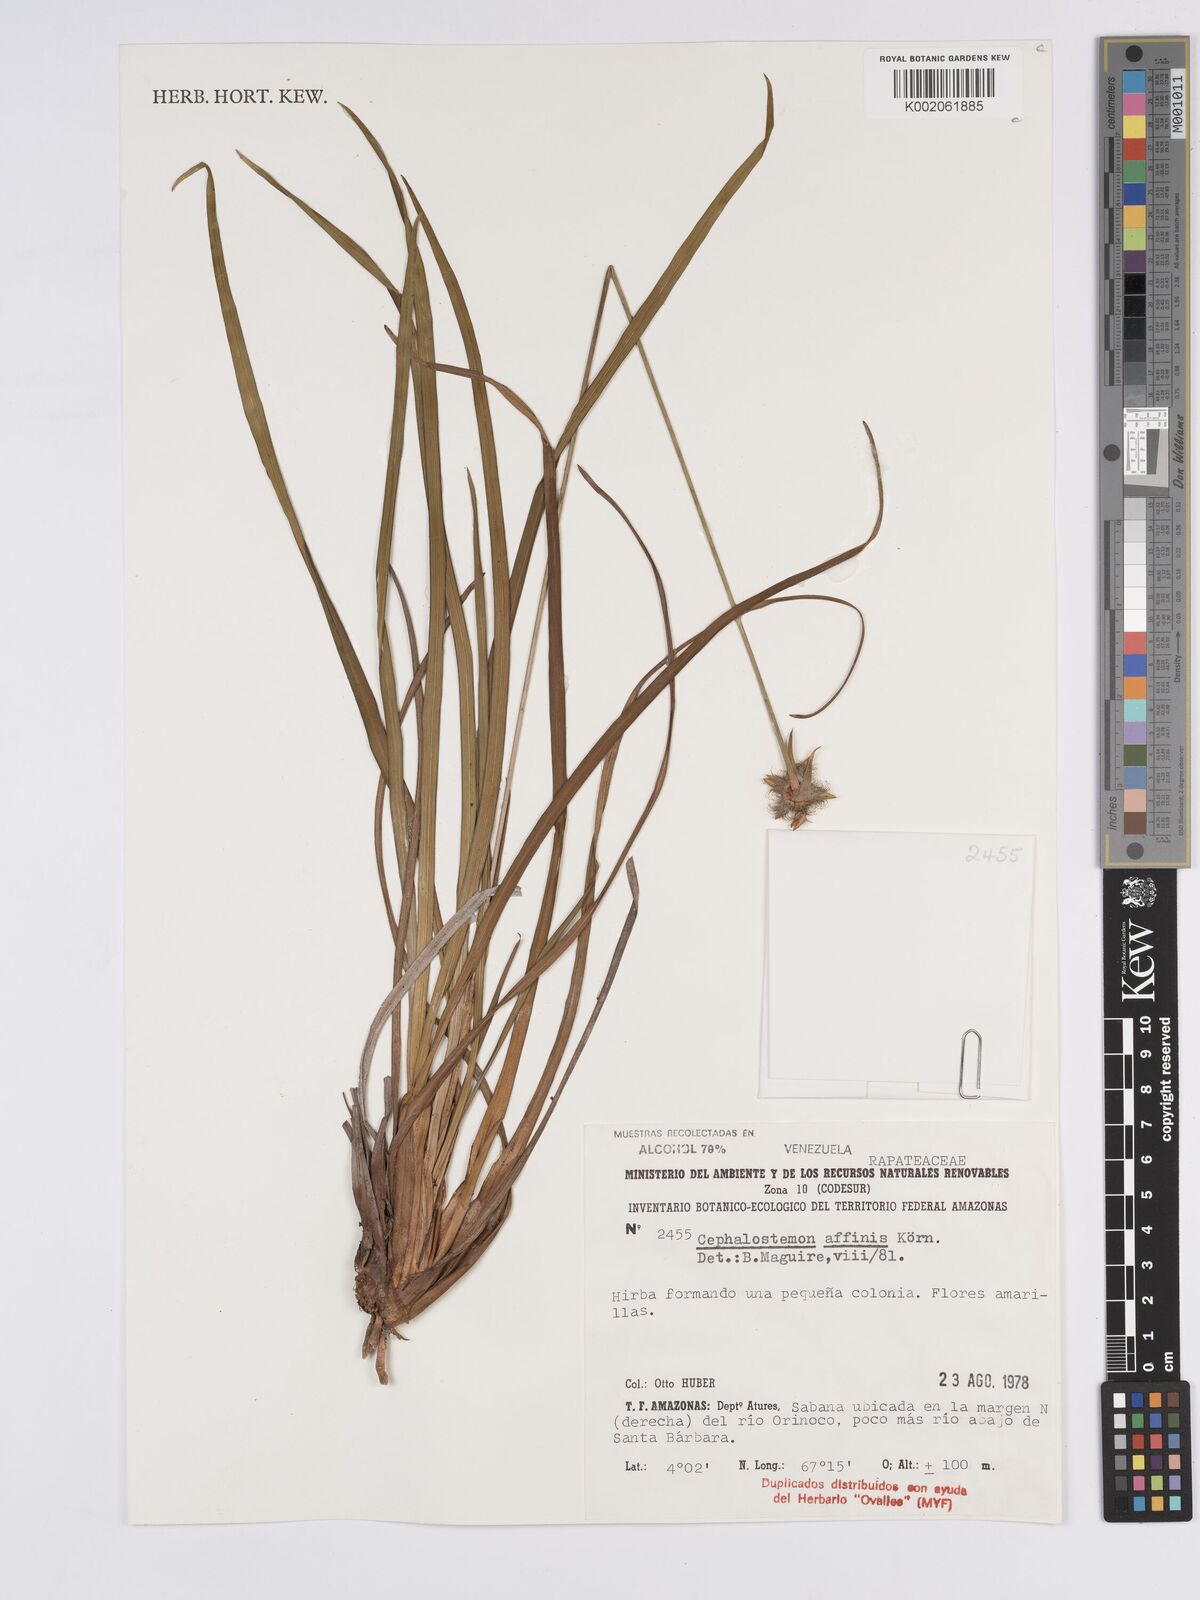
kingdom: Plantae
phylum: Tracheophyta
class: Liliopsida
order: Poales
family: Rapateaceae
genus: Cephalostemon
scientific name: Cephalostemon affinis
